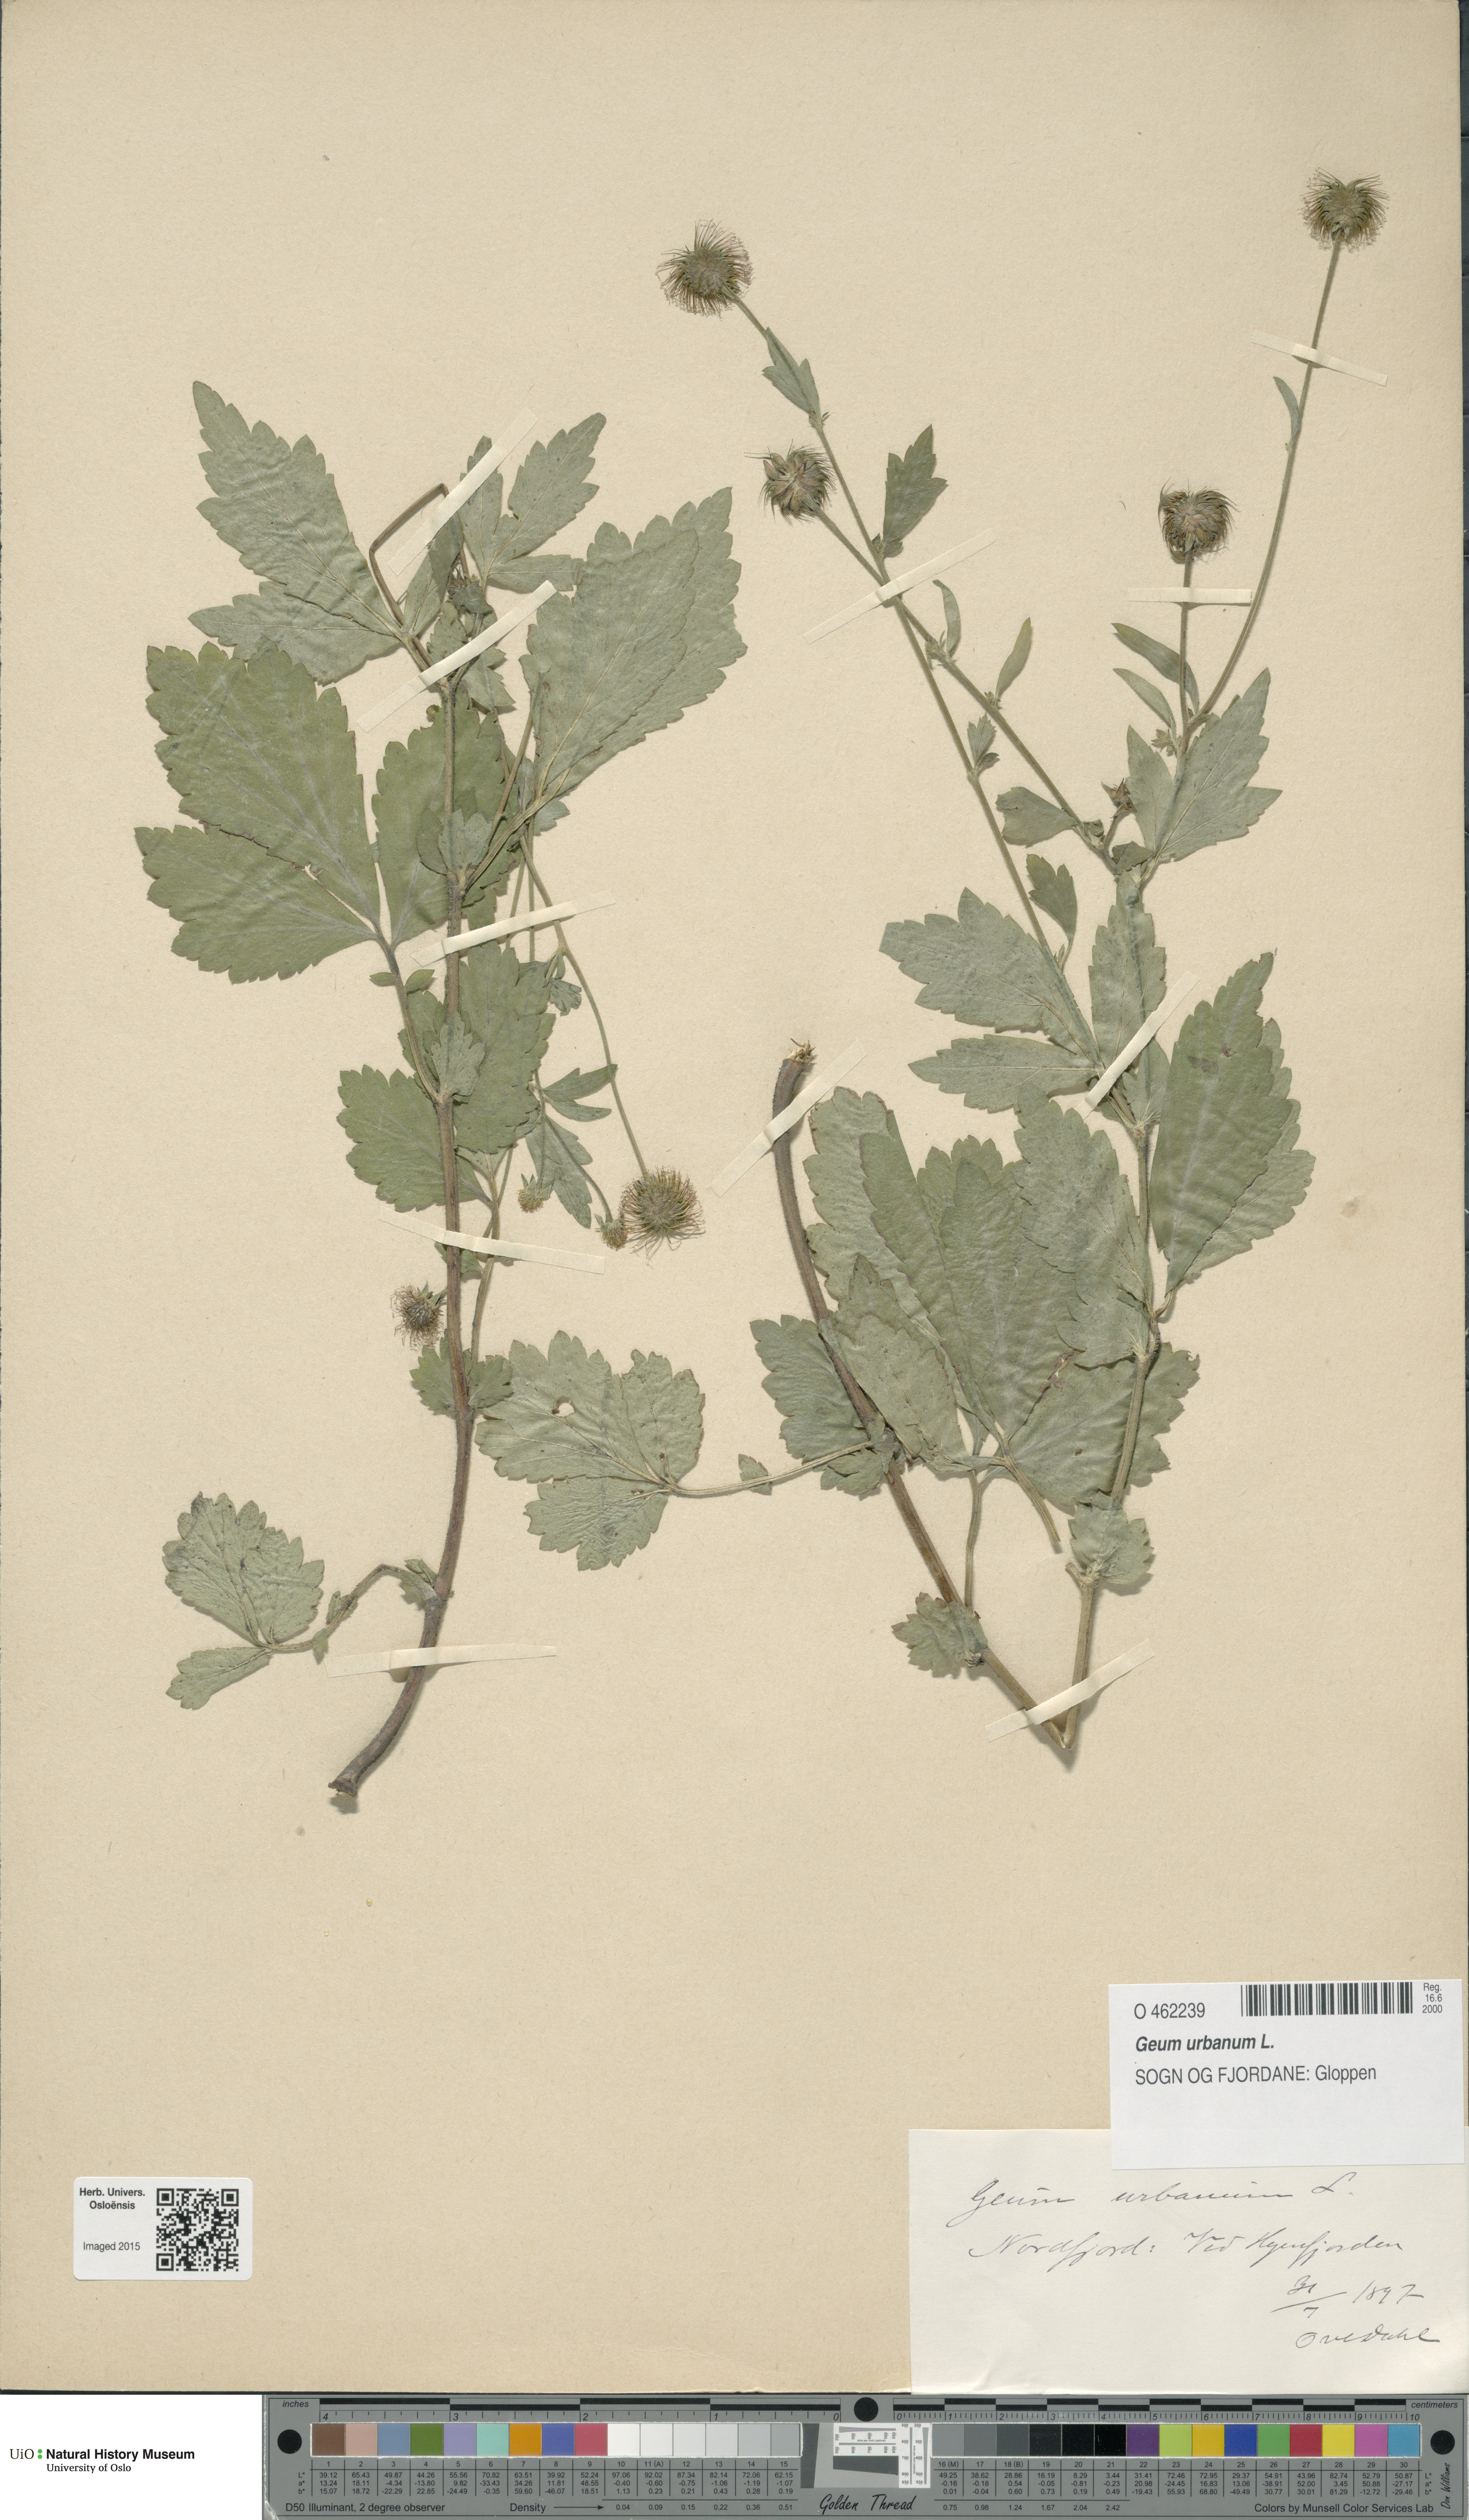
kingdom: Plantae
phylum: Tracheophyta
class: Magnoliopsida
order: Rosales
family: Rosaceae
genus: Geum
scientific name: Geum urbanum
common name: Wood avens
